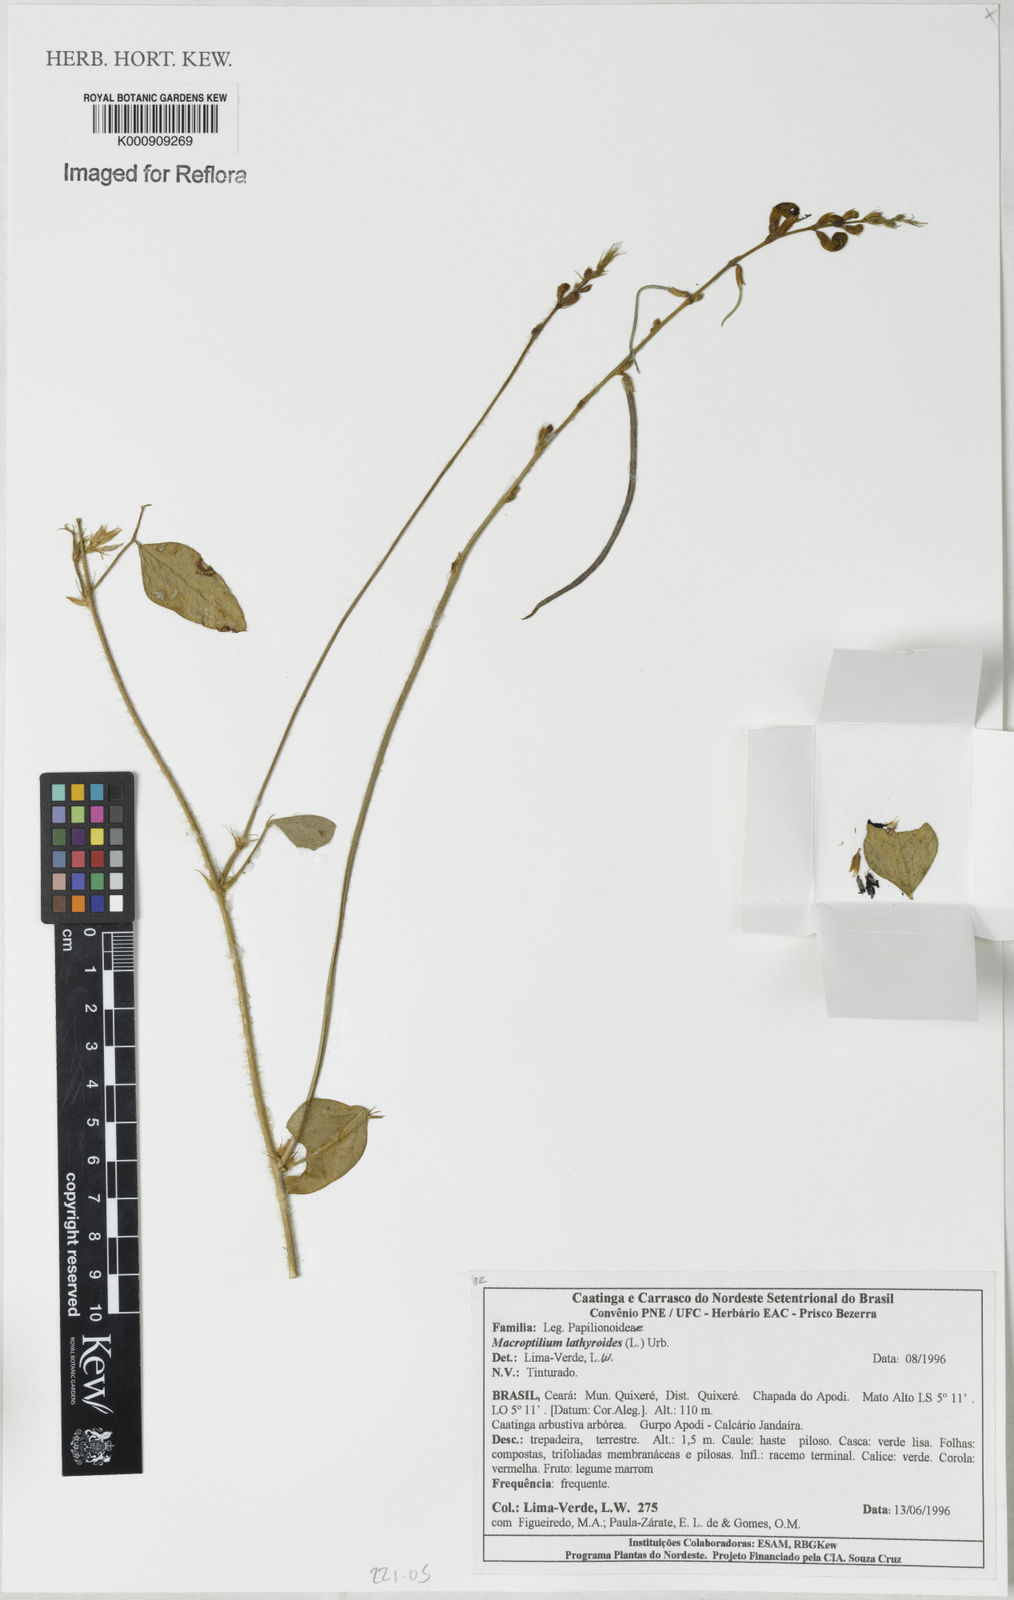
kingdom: Plantae
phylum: Tracheophyta
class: Magnoliopsida
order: Fabales
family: Fabaceae
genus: Macroptilium
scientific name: Macroptilium lathyroides
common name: Wild bushbean
